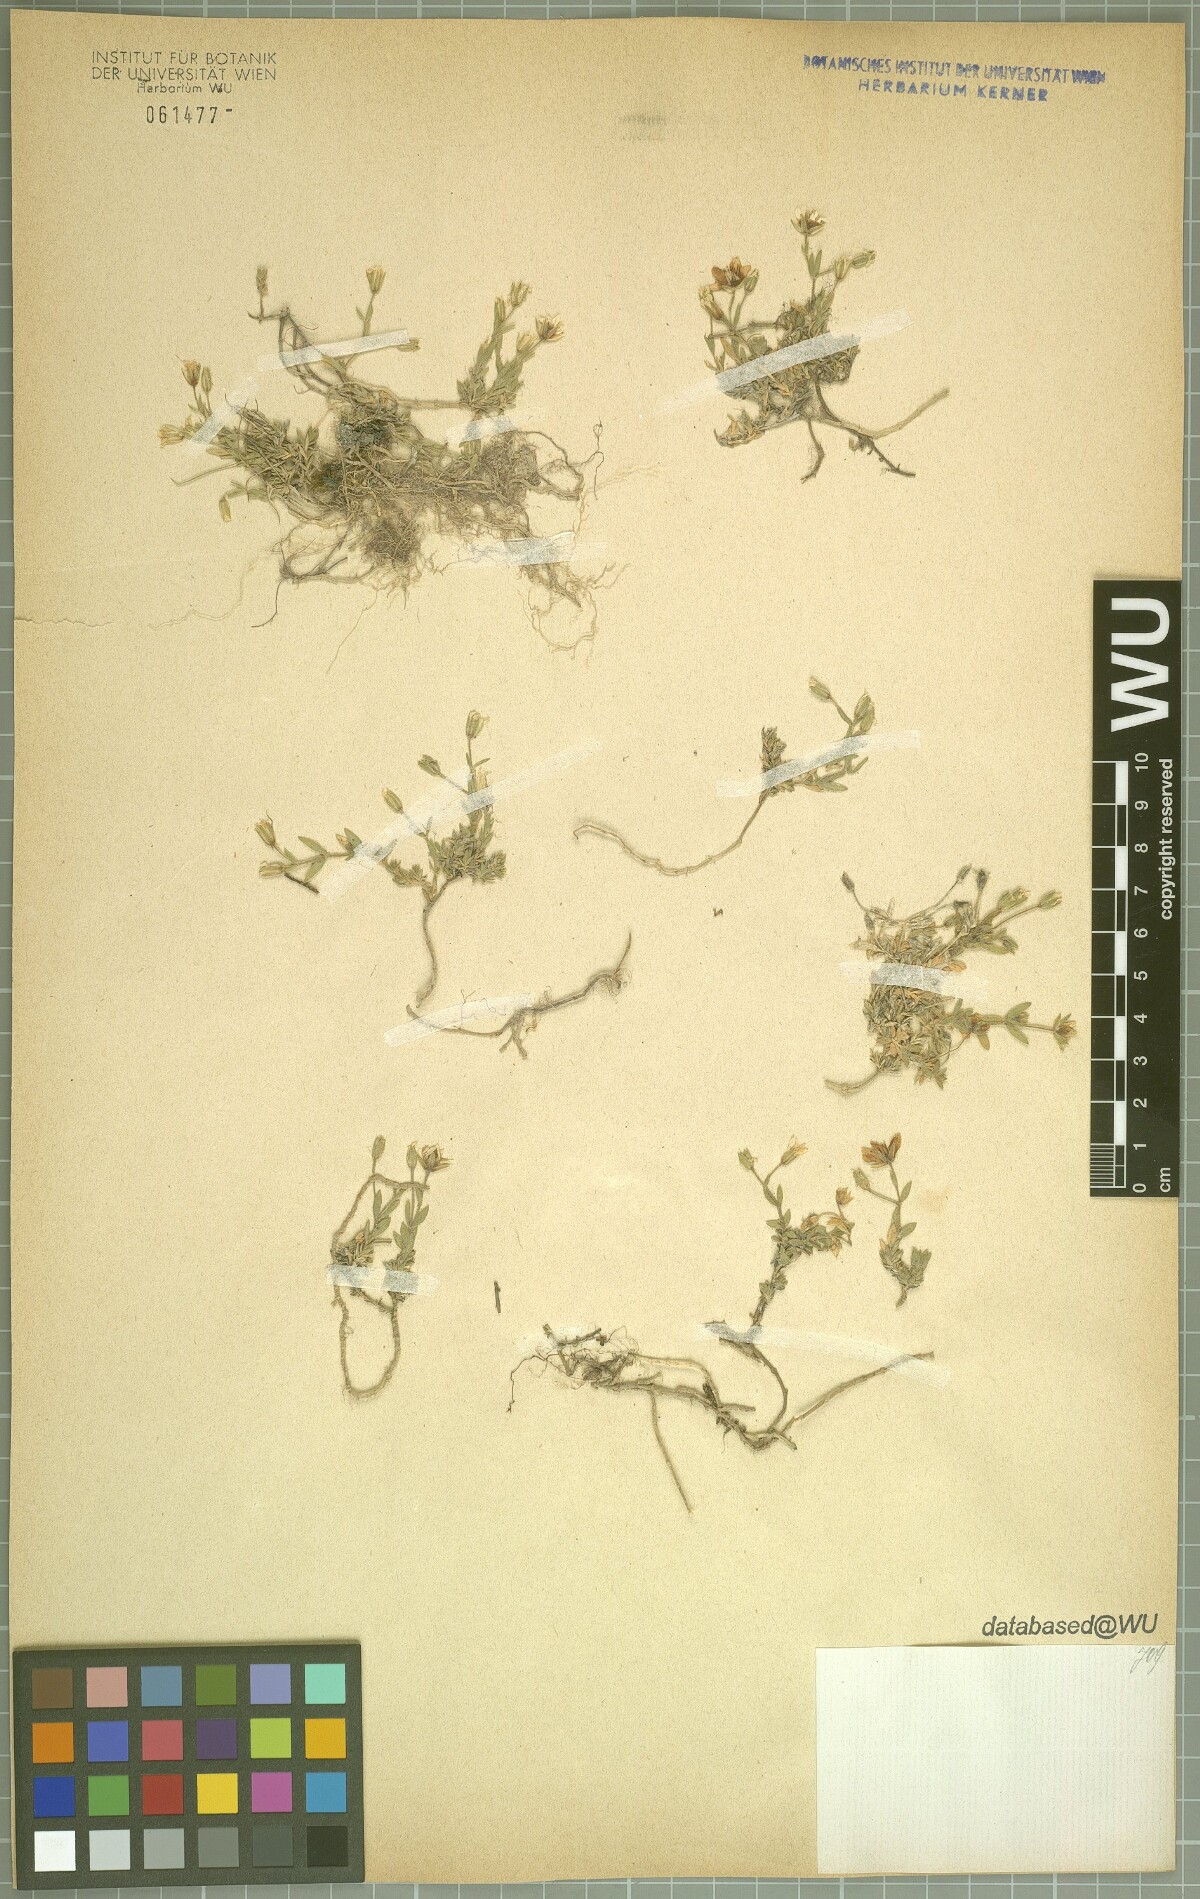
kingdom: Plantae
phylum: Tracheophyta
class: Magnoliopsida
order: Caryophyllales
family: Caryophyllaceae
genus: Arenaria
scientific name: Arenaria huteri
